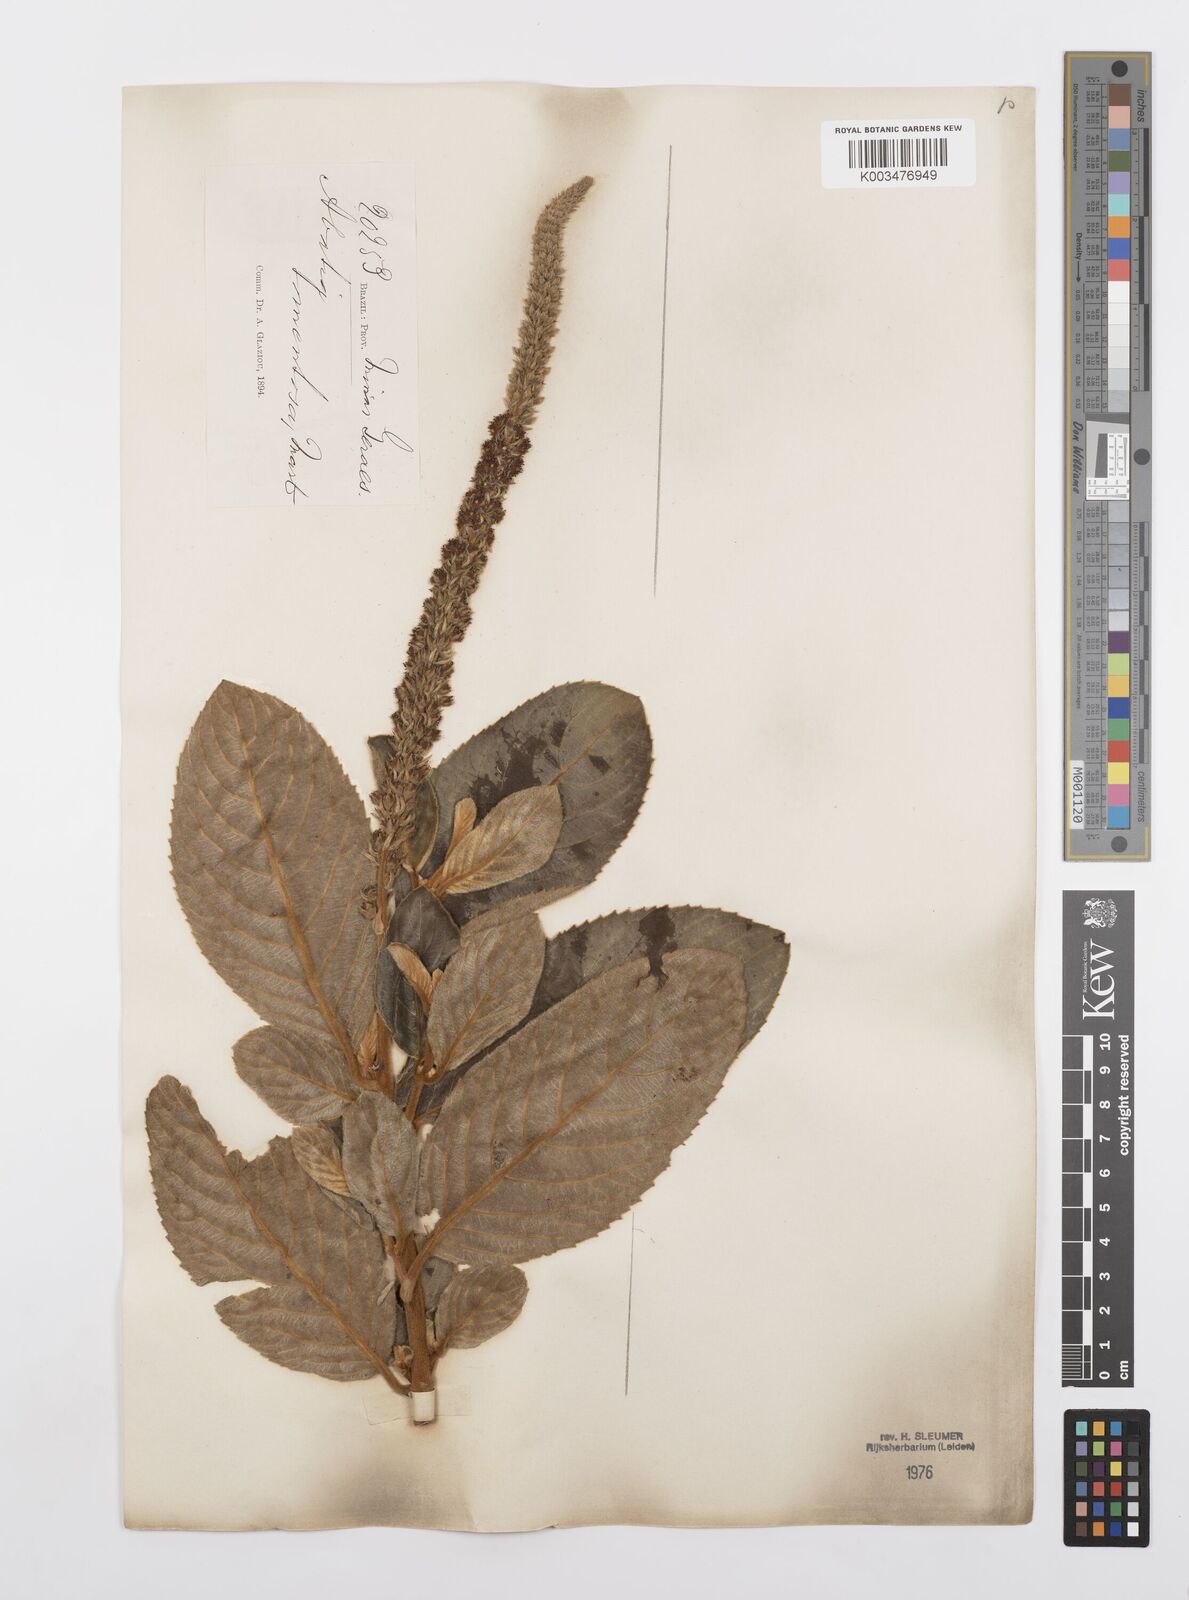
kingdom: Plantae
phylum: Tracheophyta
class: Magnoliopsida
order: Malpighiales
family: Salicaceae
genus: Abatia
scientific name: Abatia americana
